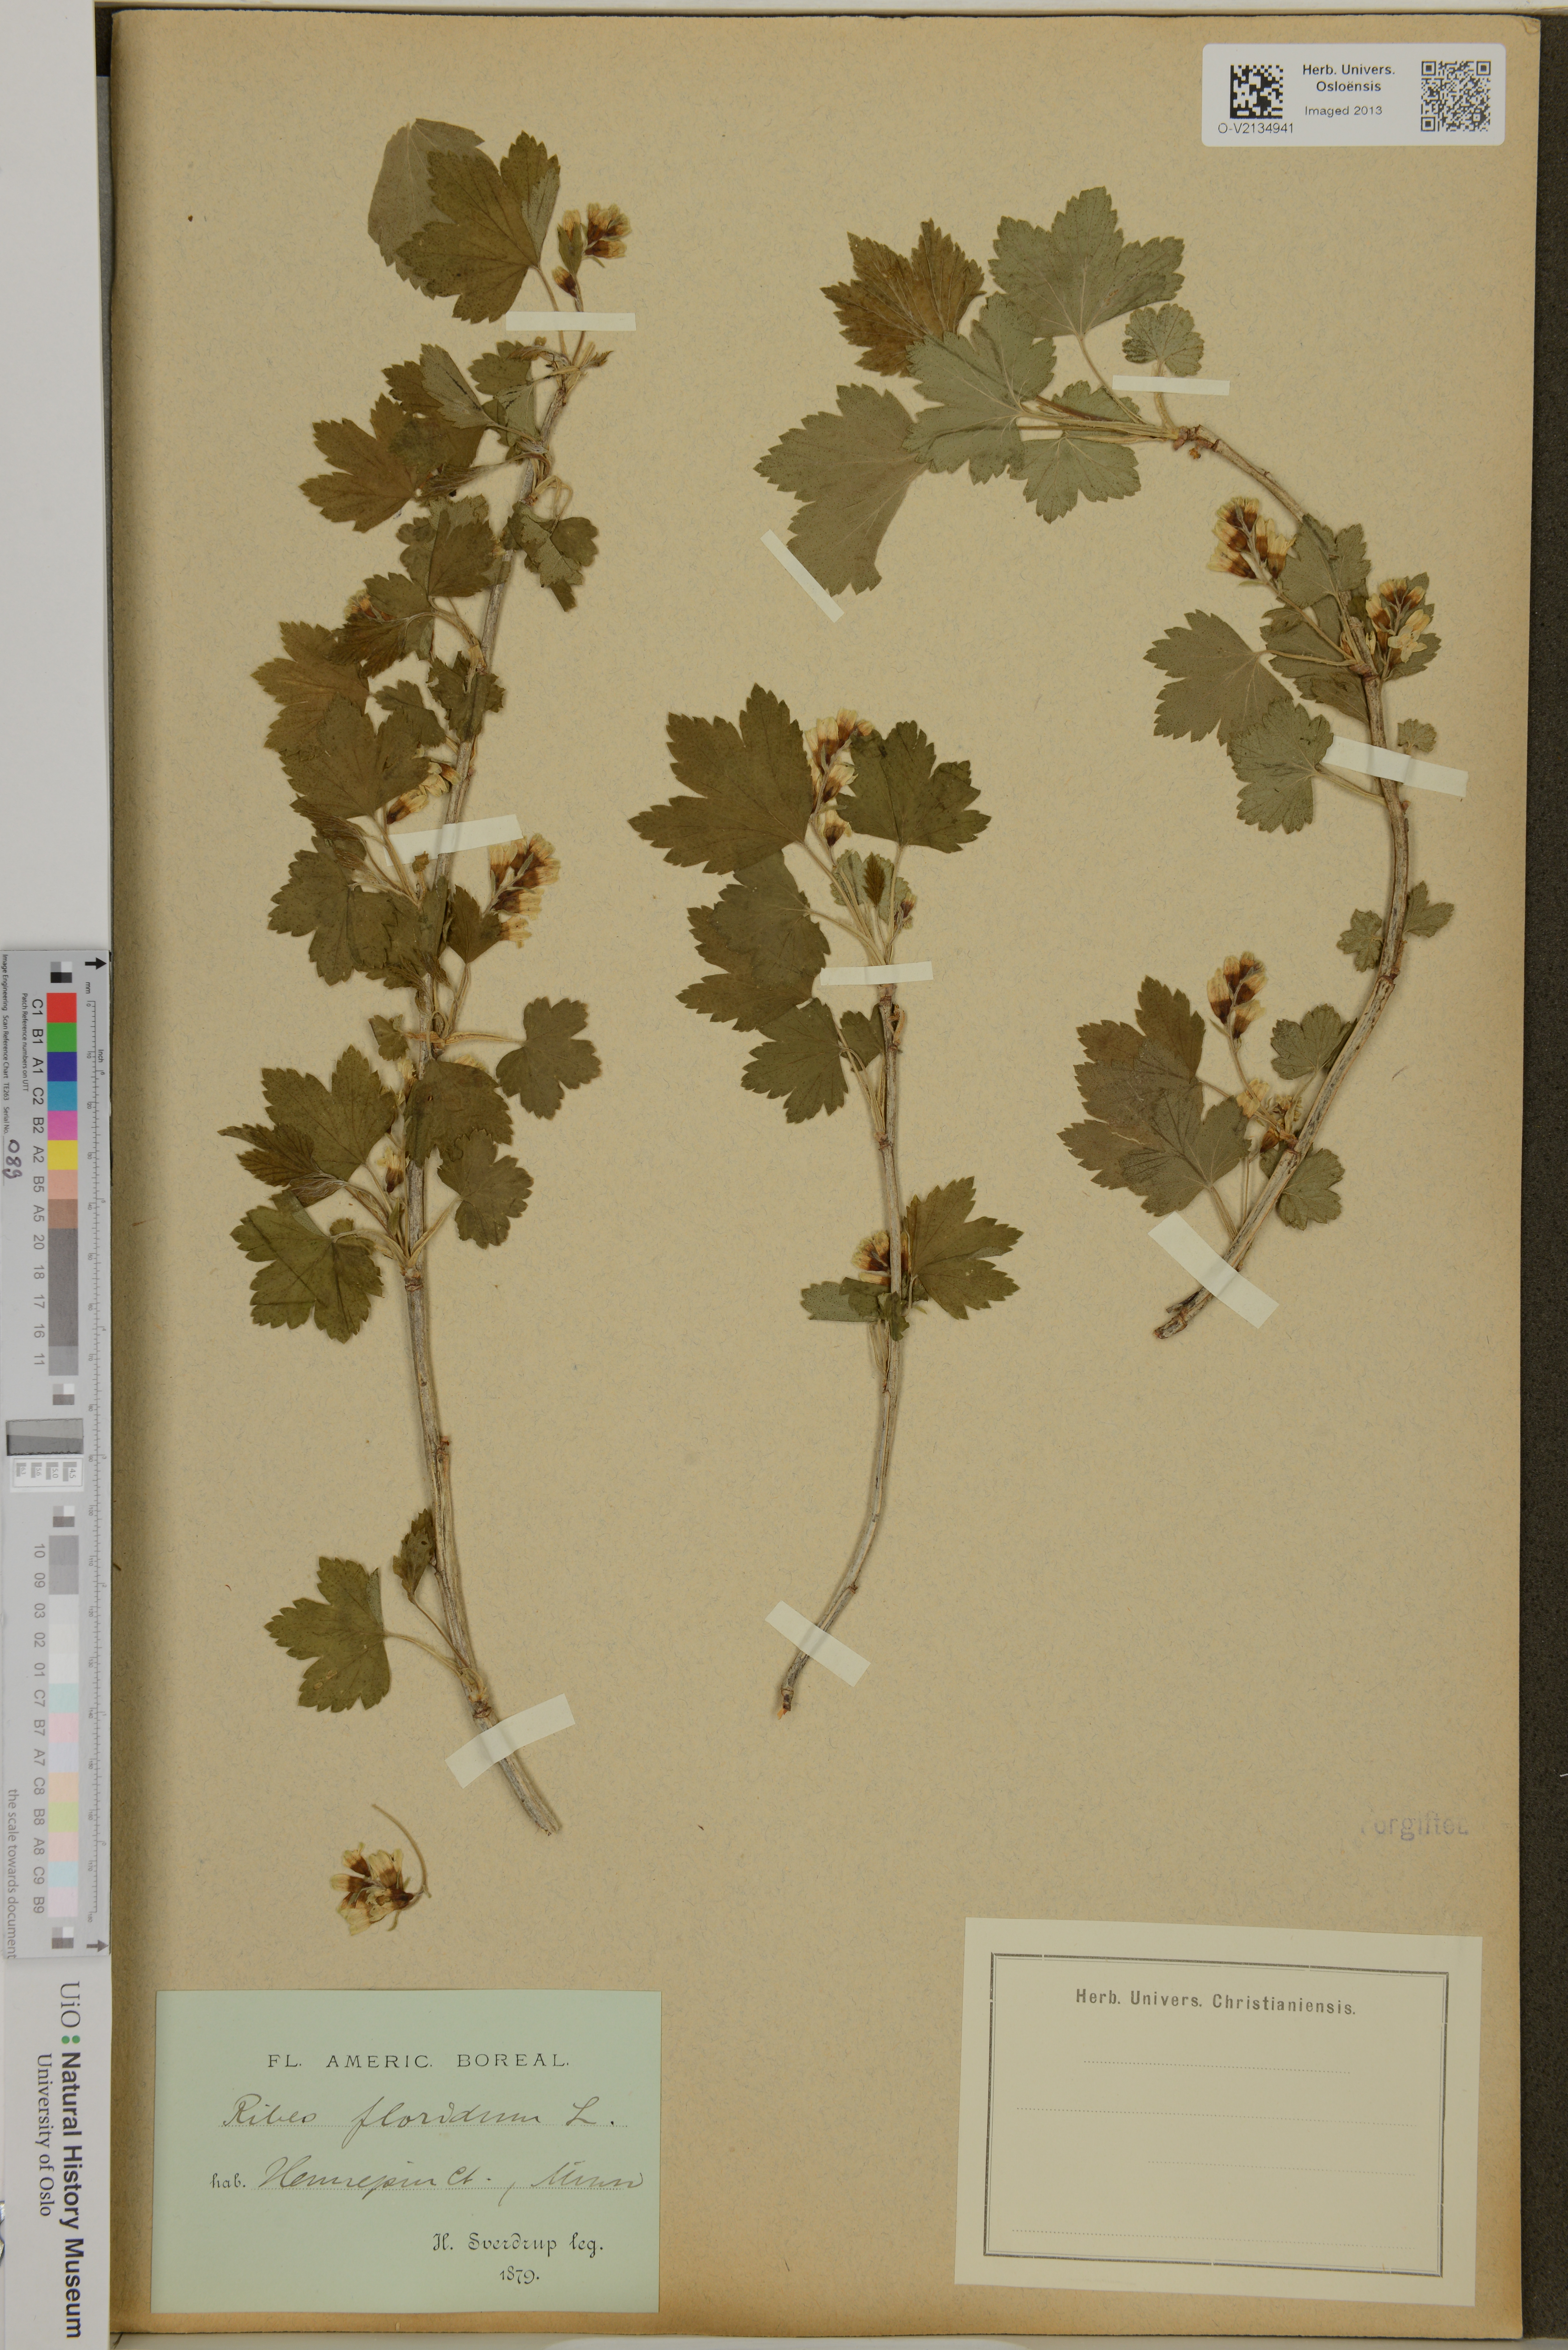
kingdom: Plantae
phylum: Tracheophyta
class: Magnoliopsida
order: Saxifragales
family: Grossulariaceae
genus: Ribes
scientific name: Ribes
